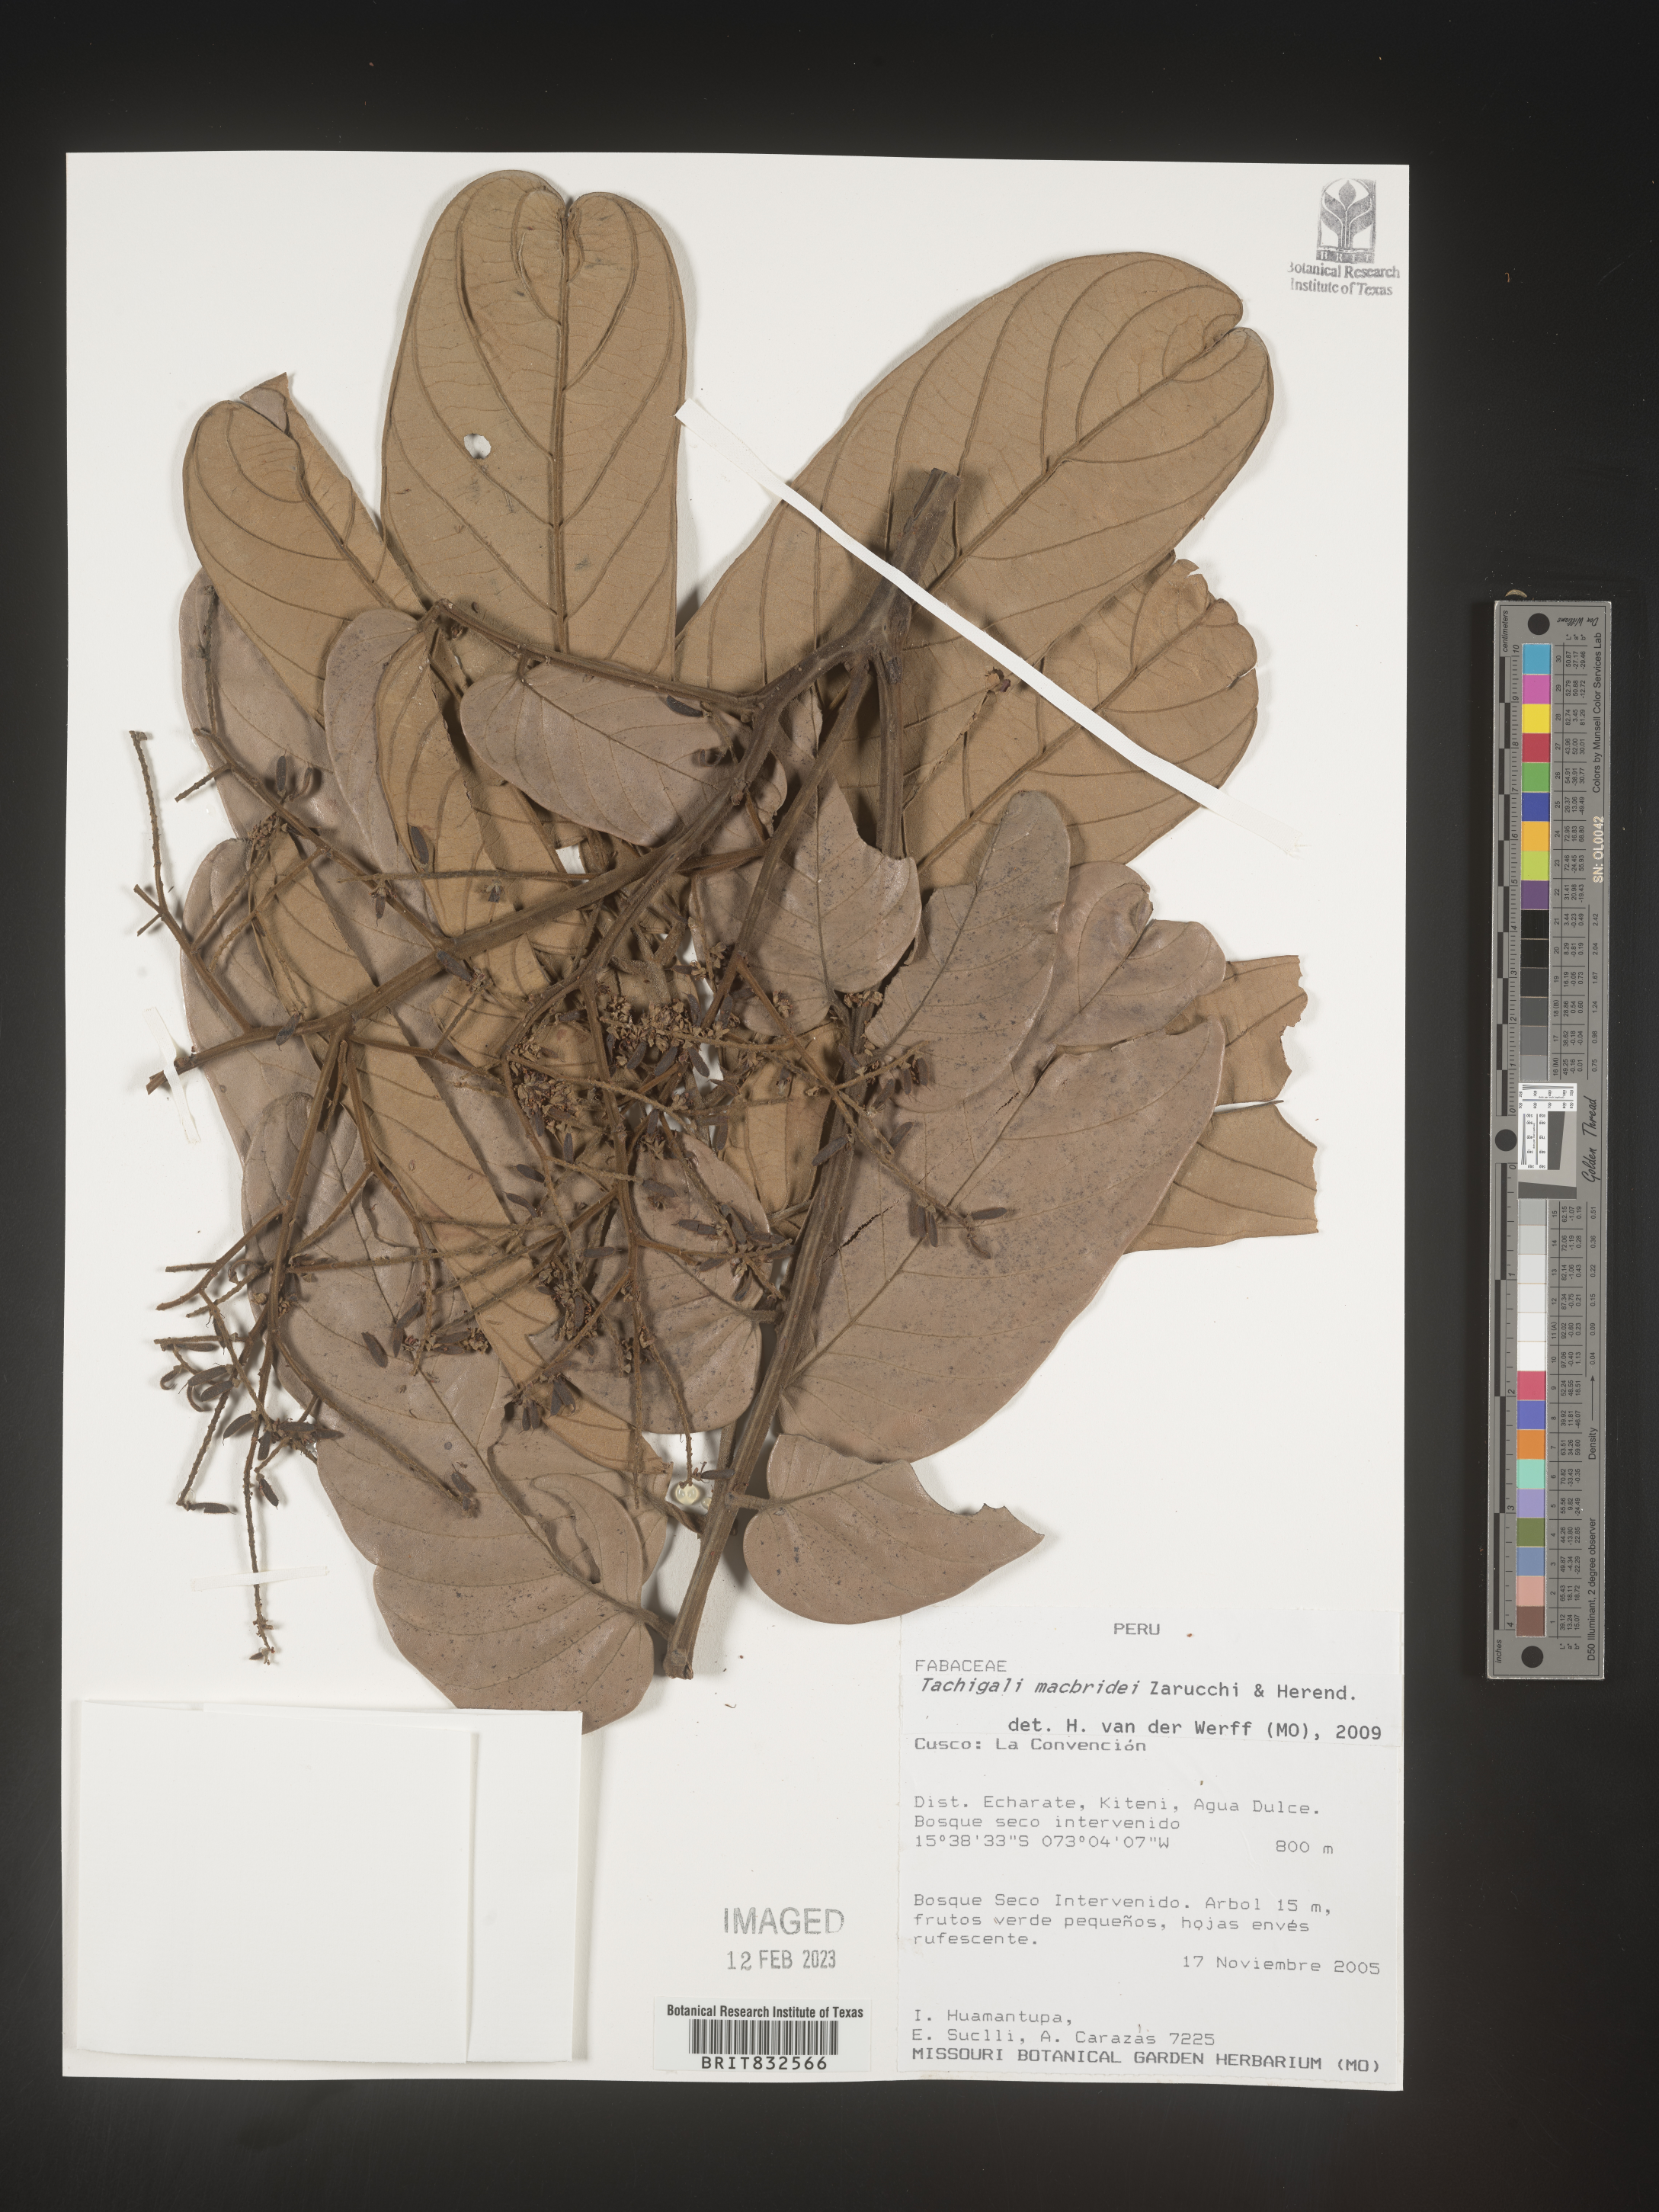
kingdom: Plantae
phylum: Tracheophyta
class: Magnoliopsida
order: Fabales
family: Fabaceae
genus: Tachigali
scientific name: Tachigali macbridei
